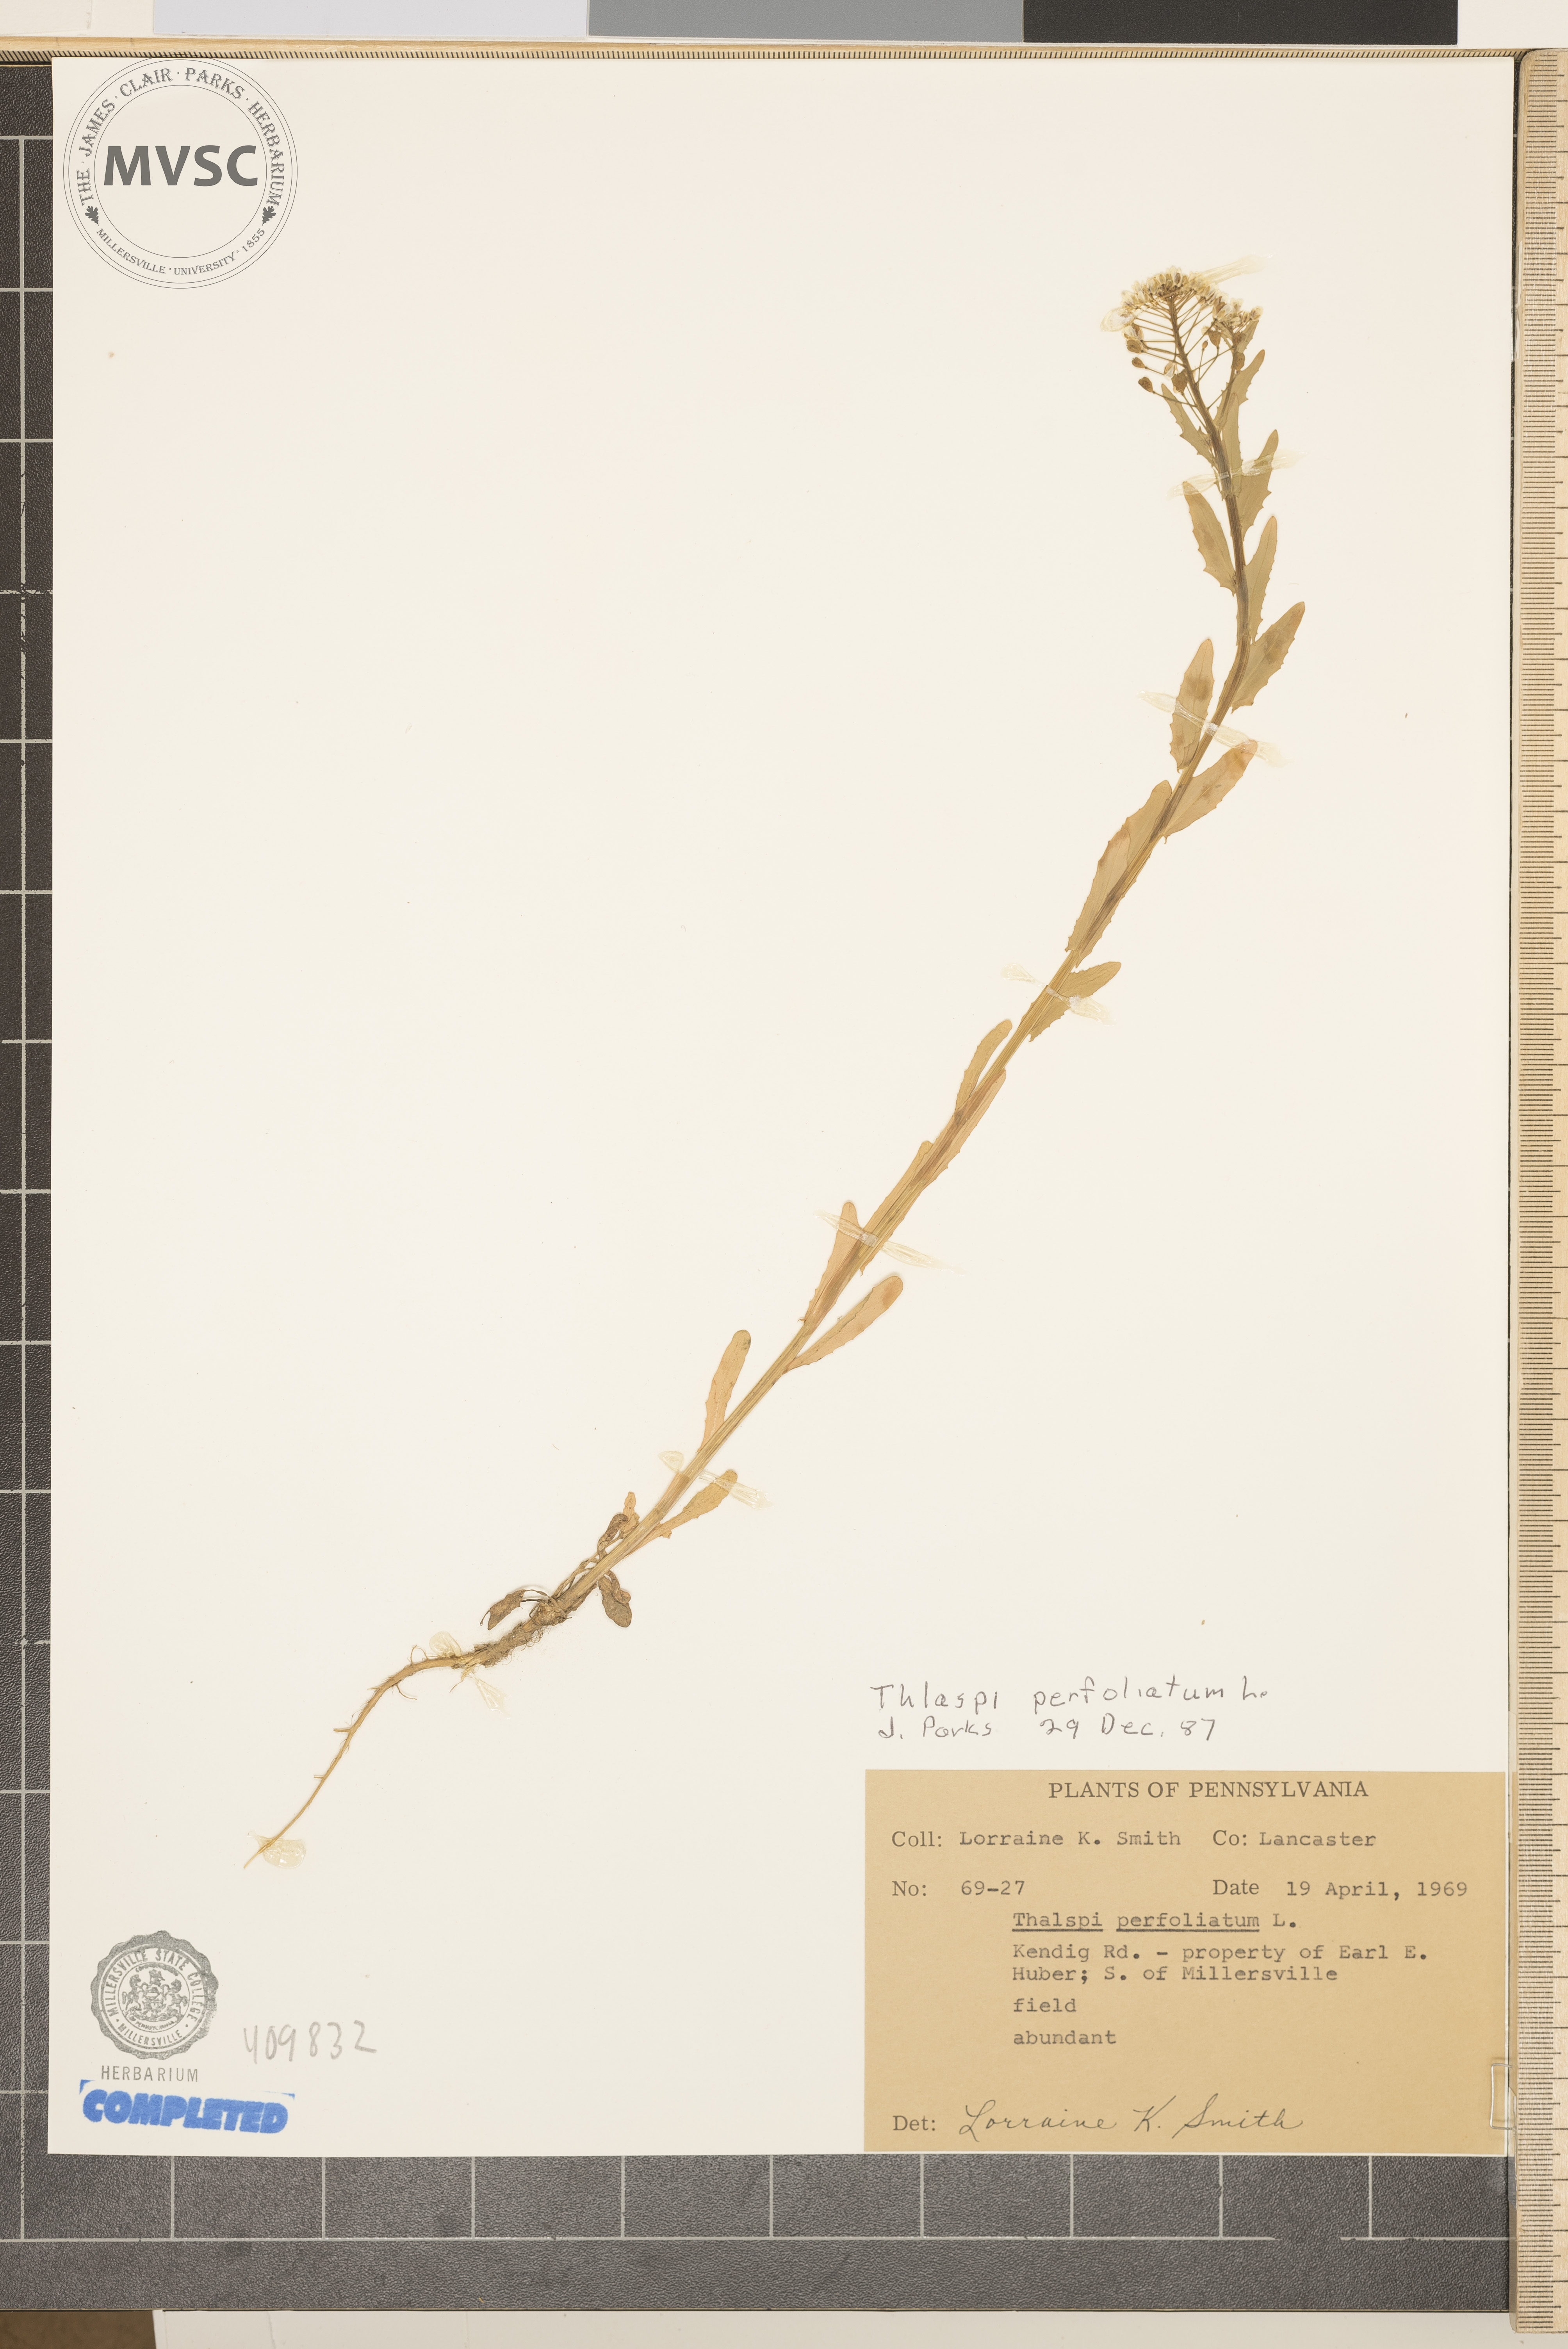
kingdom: Plantae
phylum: Tracheophyta
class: Magnoliopsida
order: Brassicales
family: Brassicaceae
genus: Noccaea
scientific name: Noccaea perfoliata
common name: pennycress
